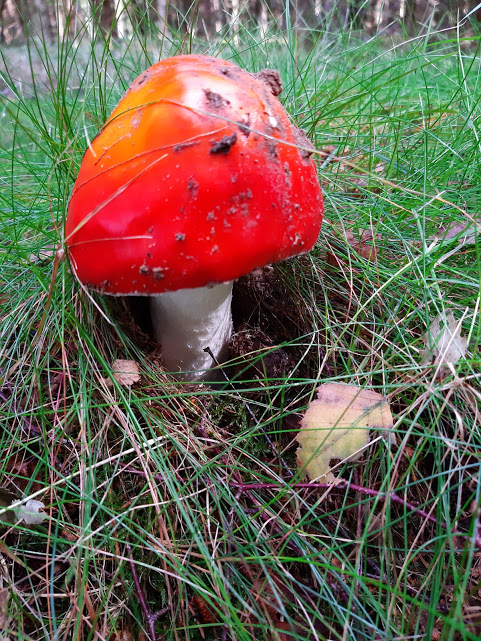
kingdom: Fungi
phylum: Basidiomycota
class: Agaricomycetes
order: Agaricales
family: Amanitaceae
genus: Amanita
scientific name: Amanita muscaria
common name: rød fluesvamp
